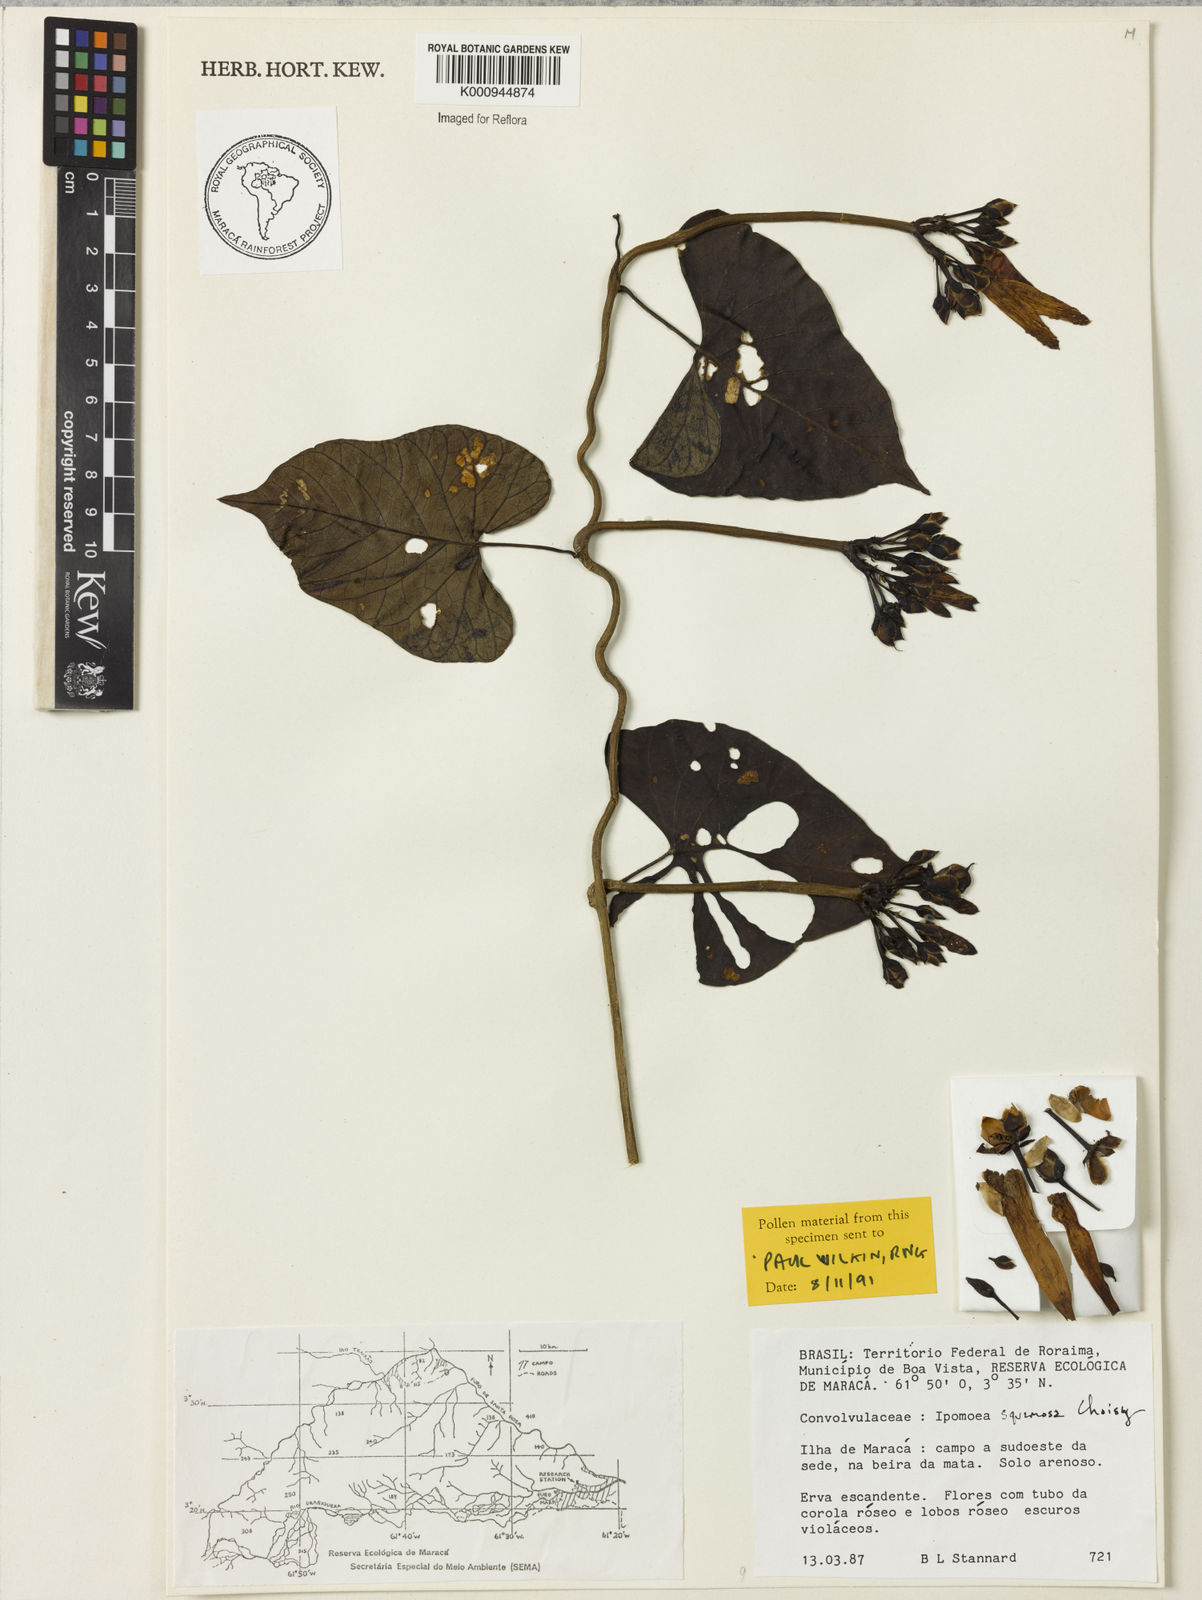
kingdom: Plantae
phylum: Tracheophyta
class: Magnoliopsida
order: Solanales
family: Convolvulaceae
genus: Ipomoea
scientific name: Ipomoea squamosa
